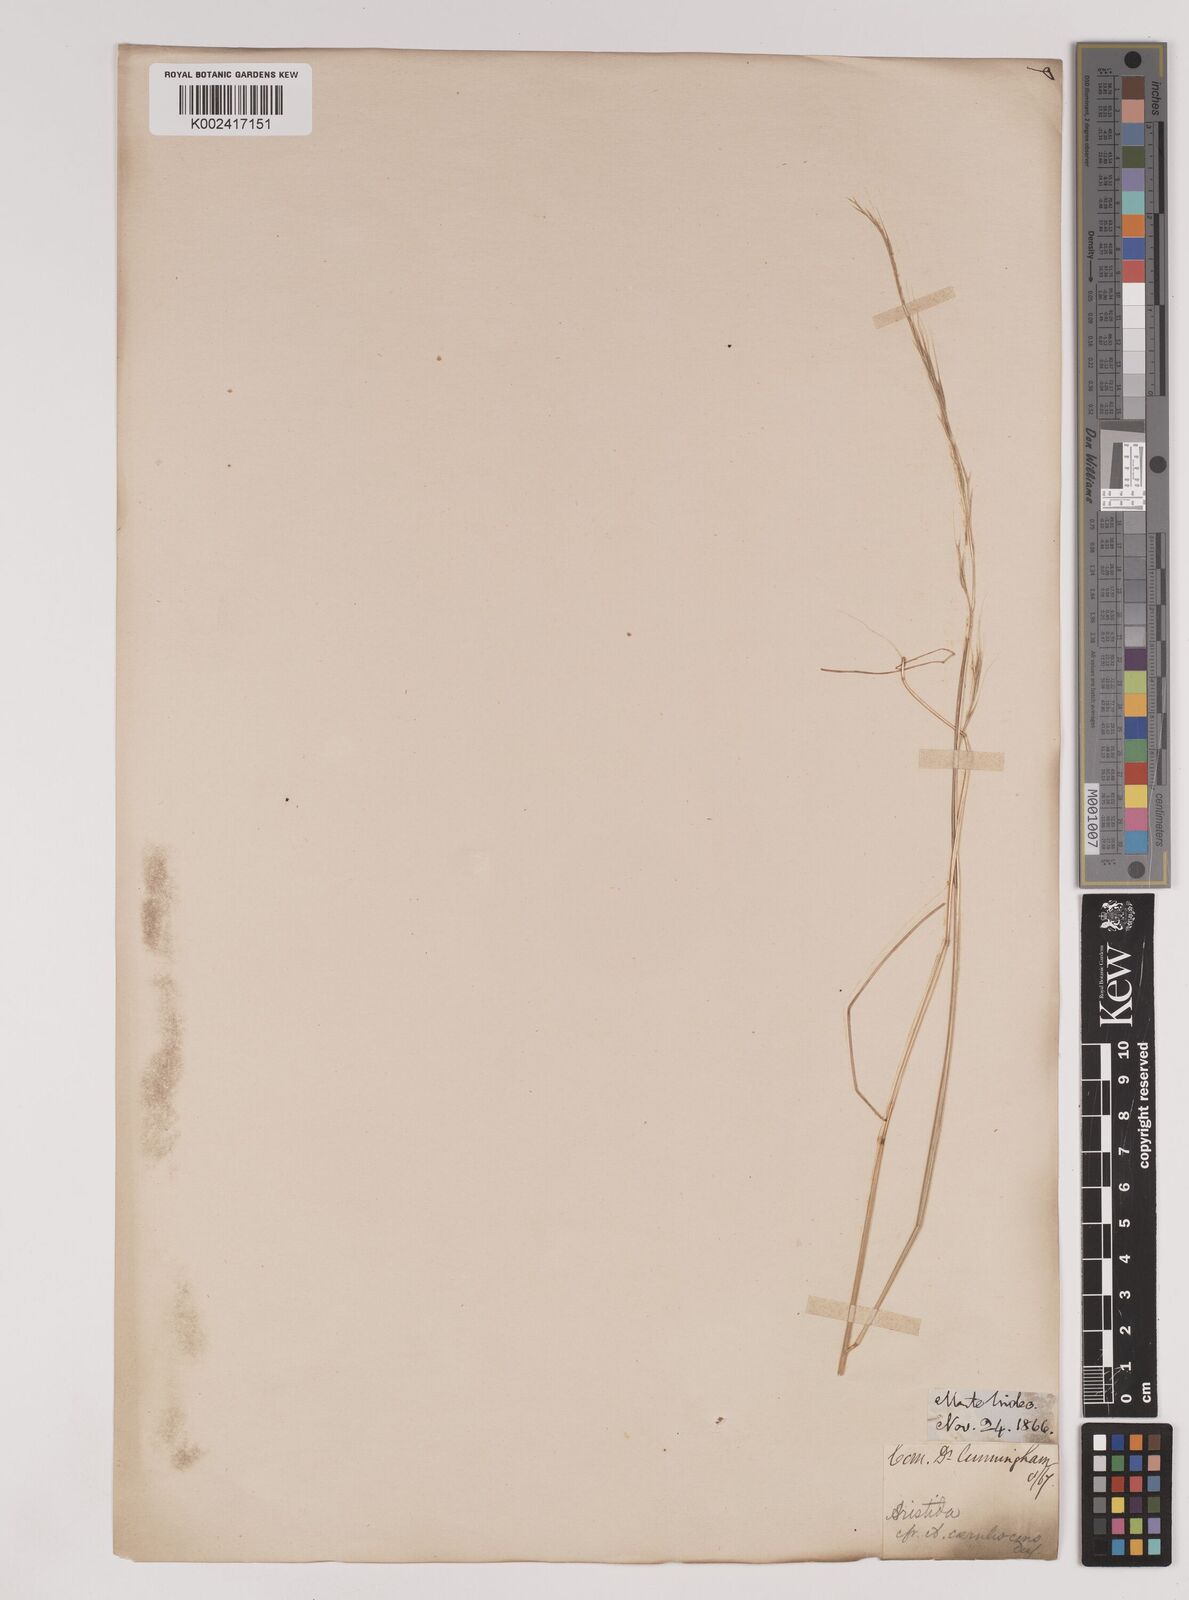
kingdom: Plantae
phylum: Tracheophyta
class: Liliopsida
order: Poales
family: Poaceae
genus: Stipa
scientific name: Stipa
